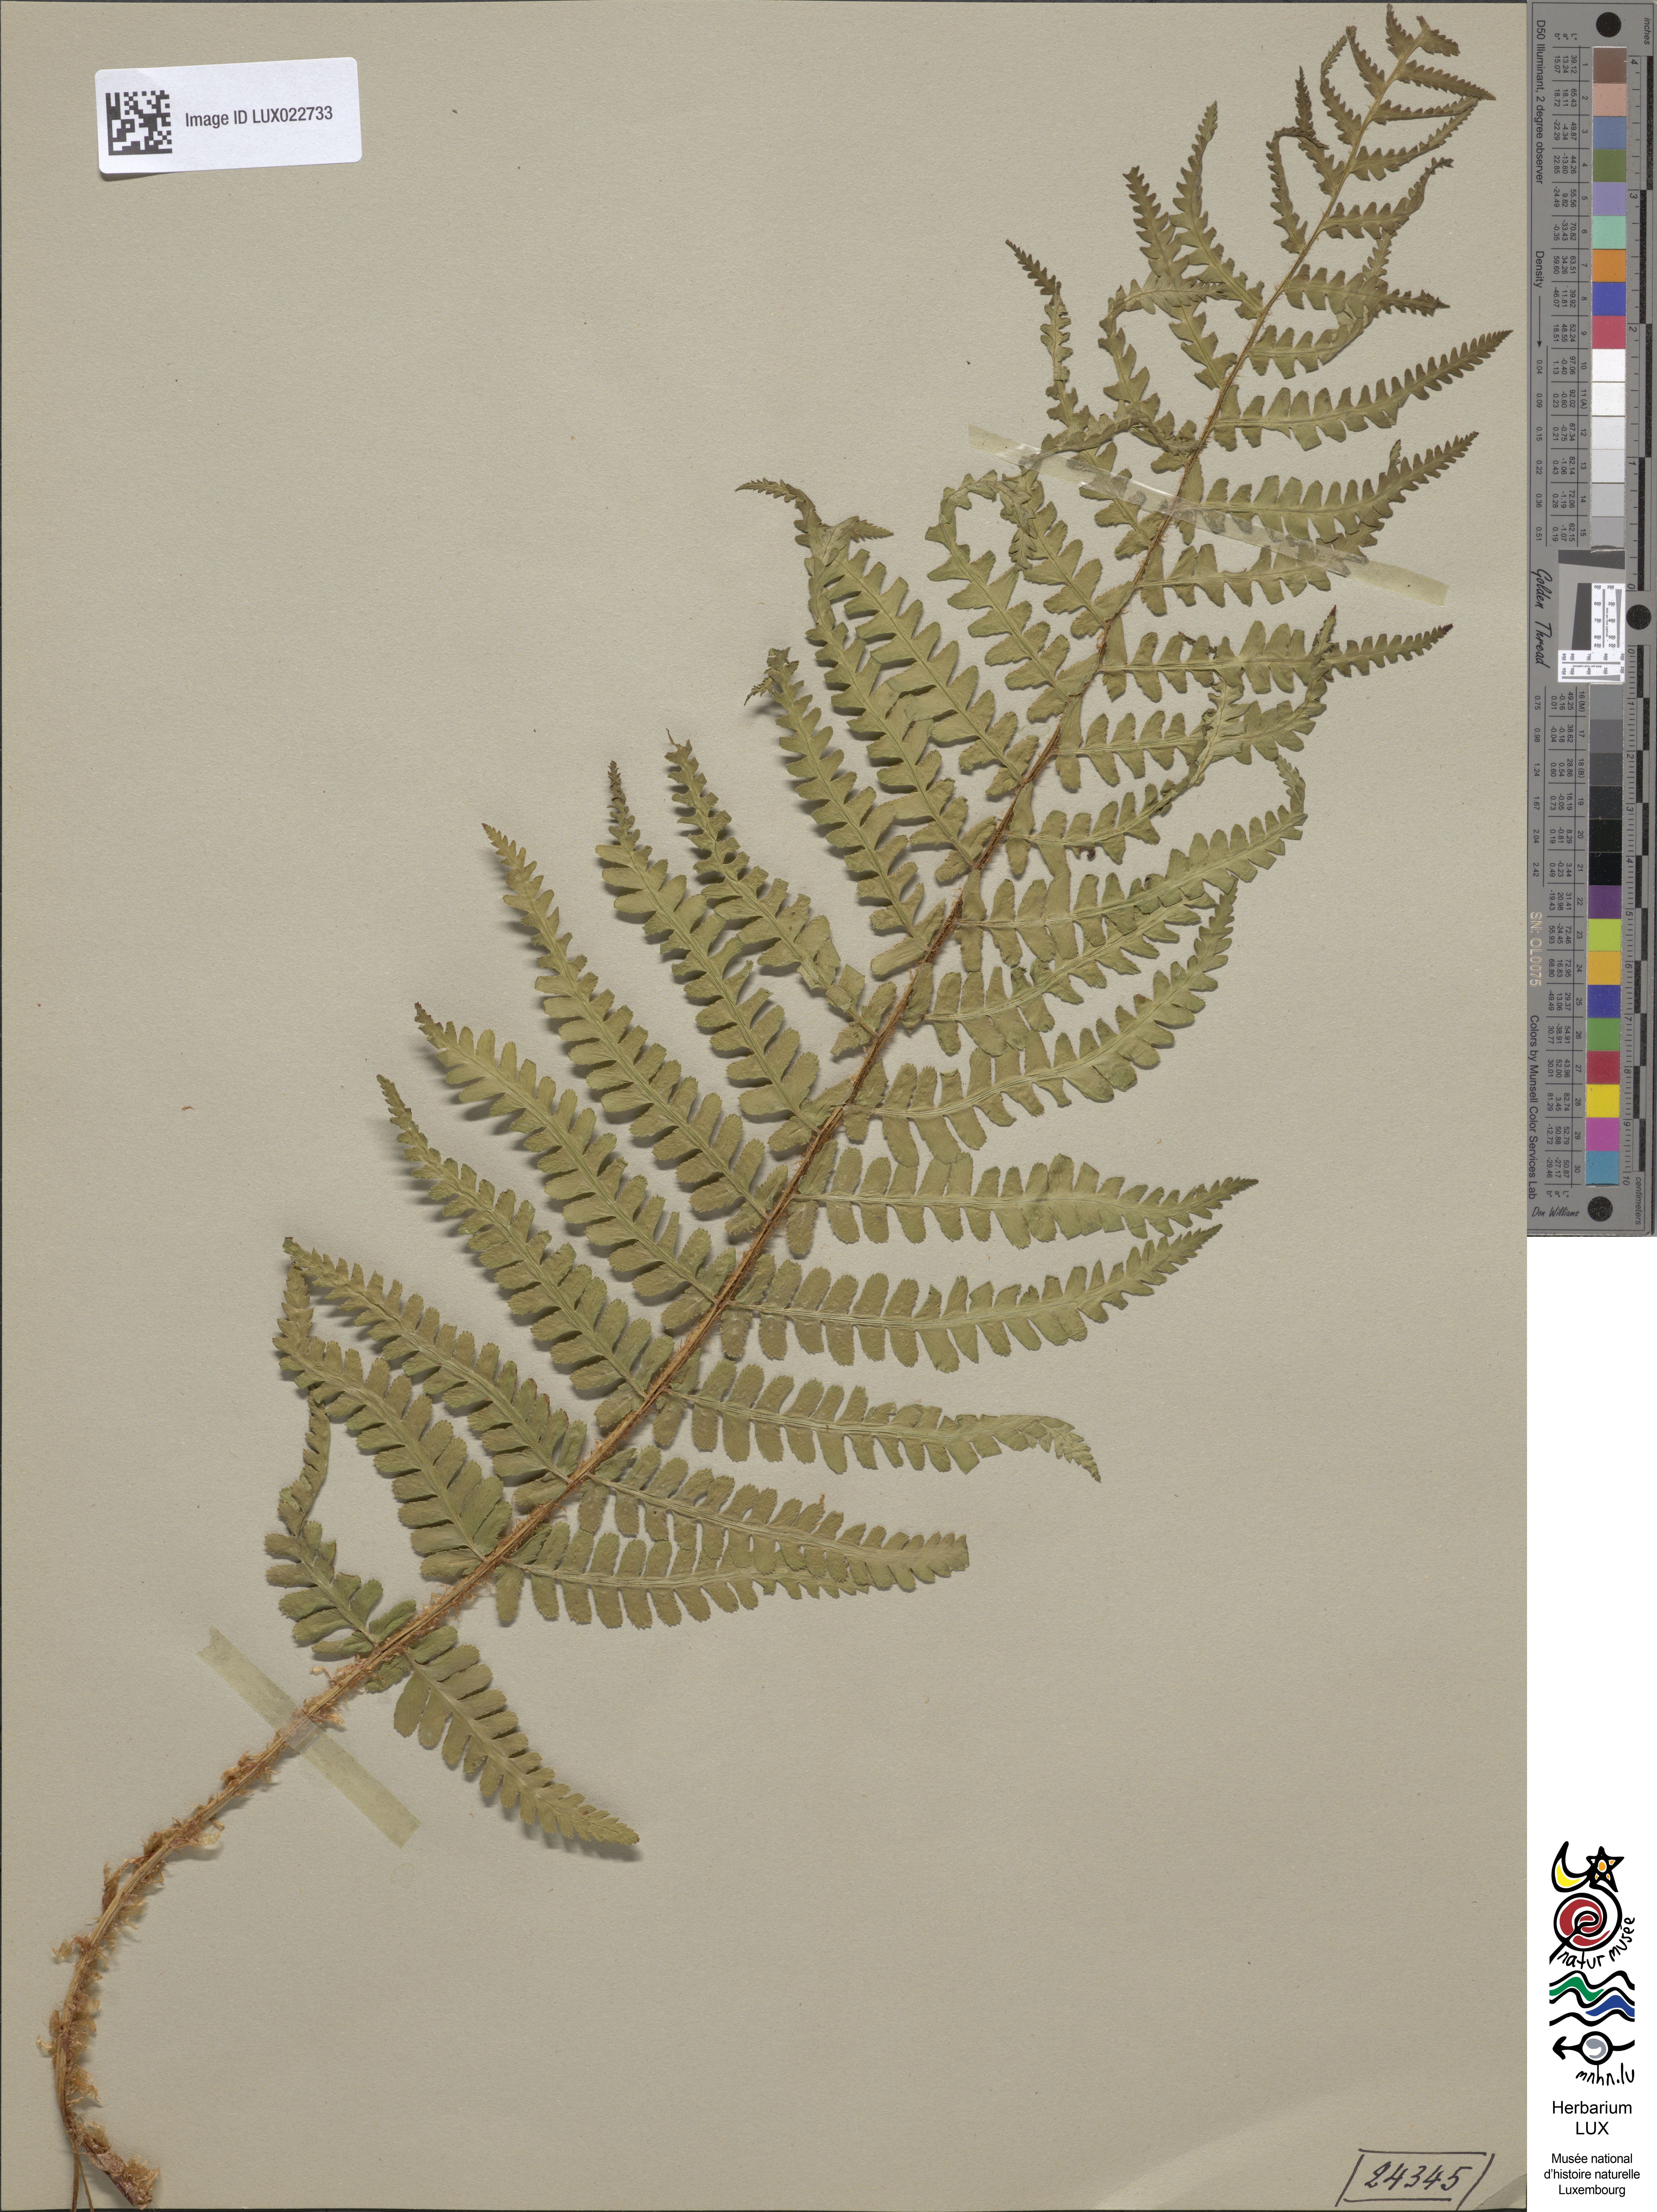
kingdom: Plantae
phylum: Tracheophyta
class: Polypodiopsida
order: Polypodiales
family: Dryopteridaceae
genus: Dryopteris
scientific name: Dryopteris filix-mas
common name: Male fern
